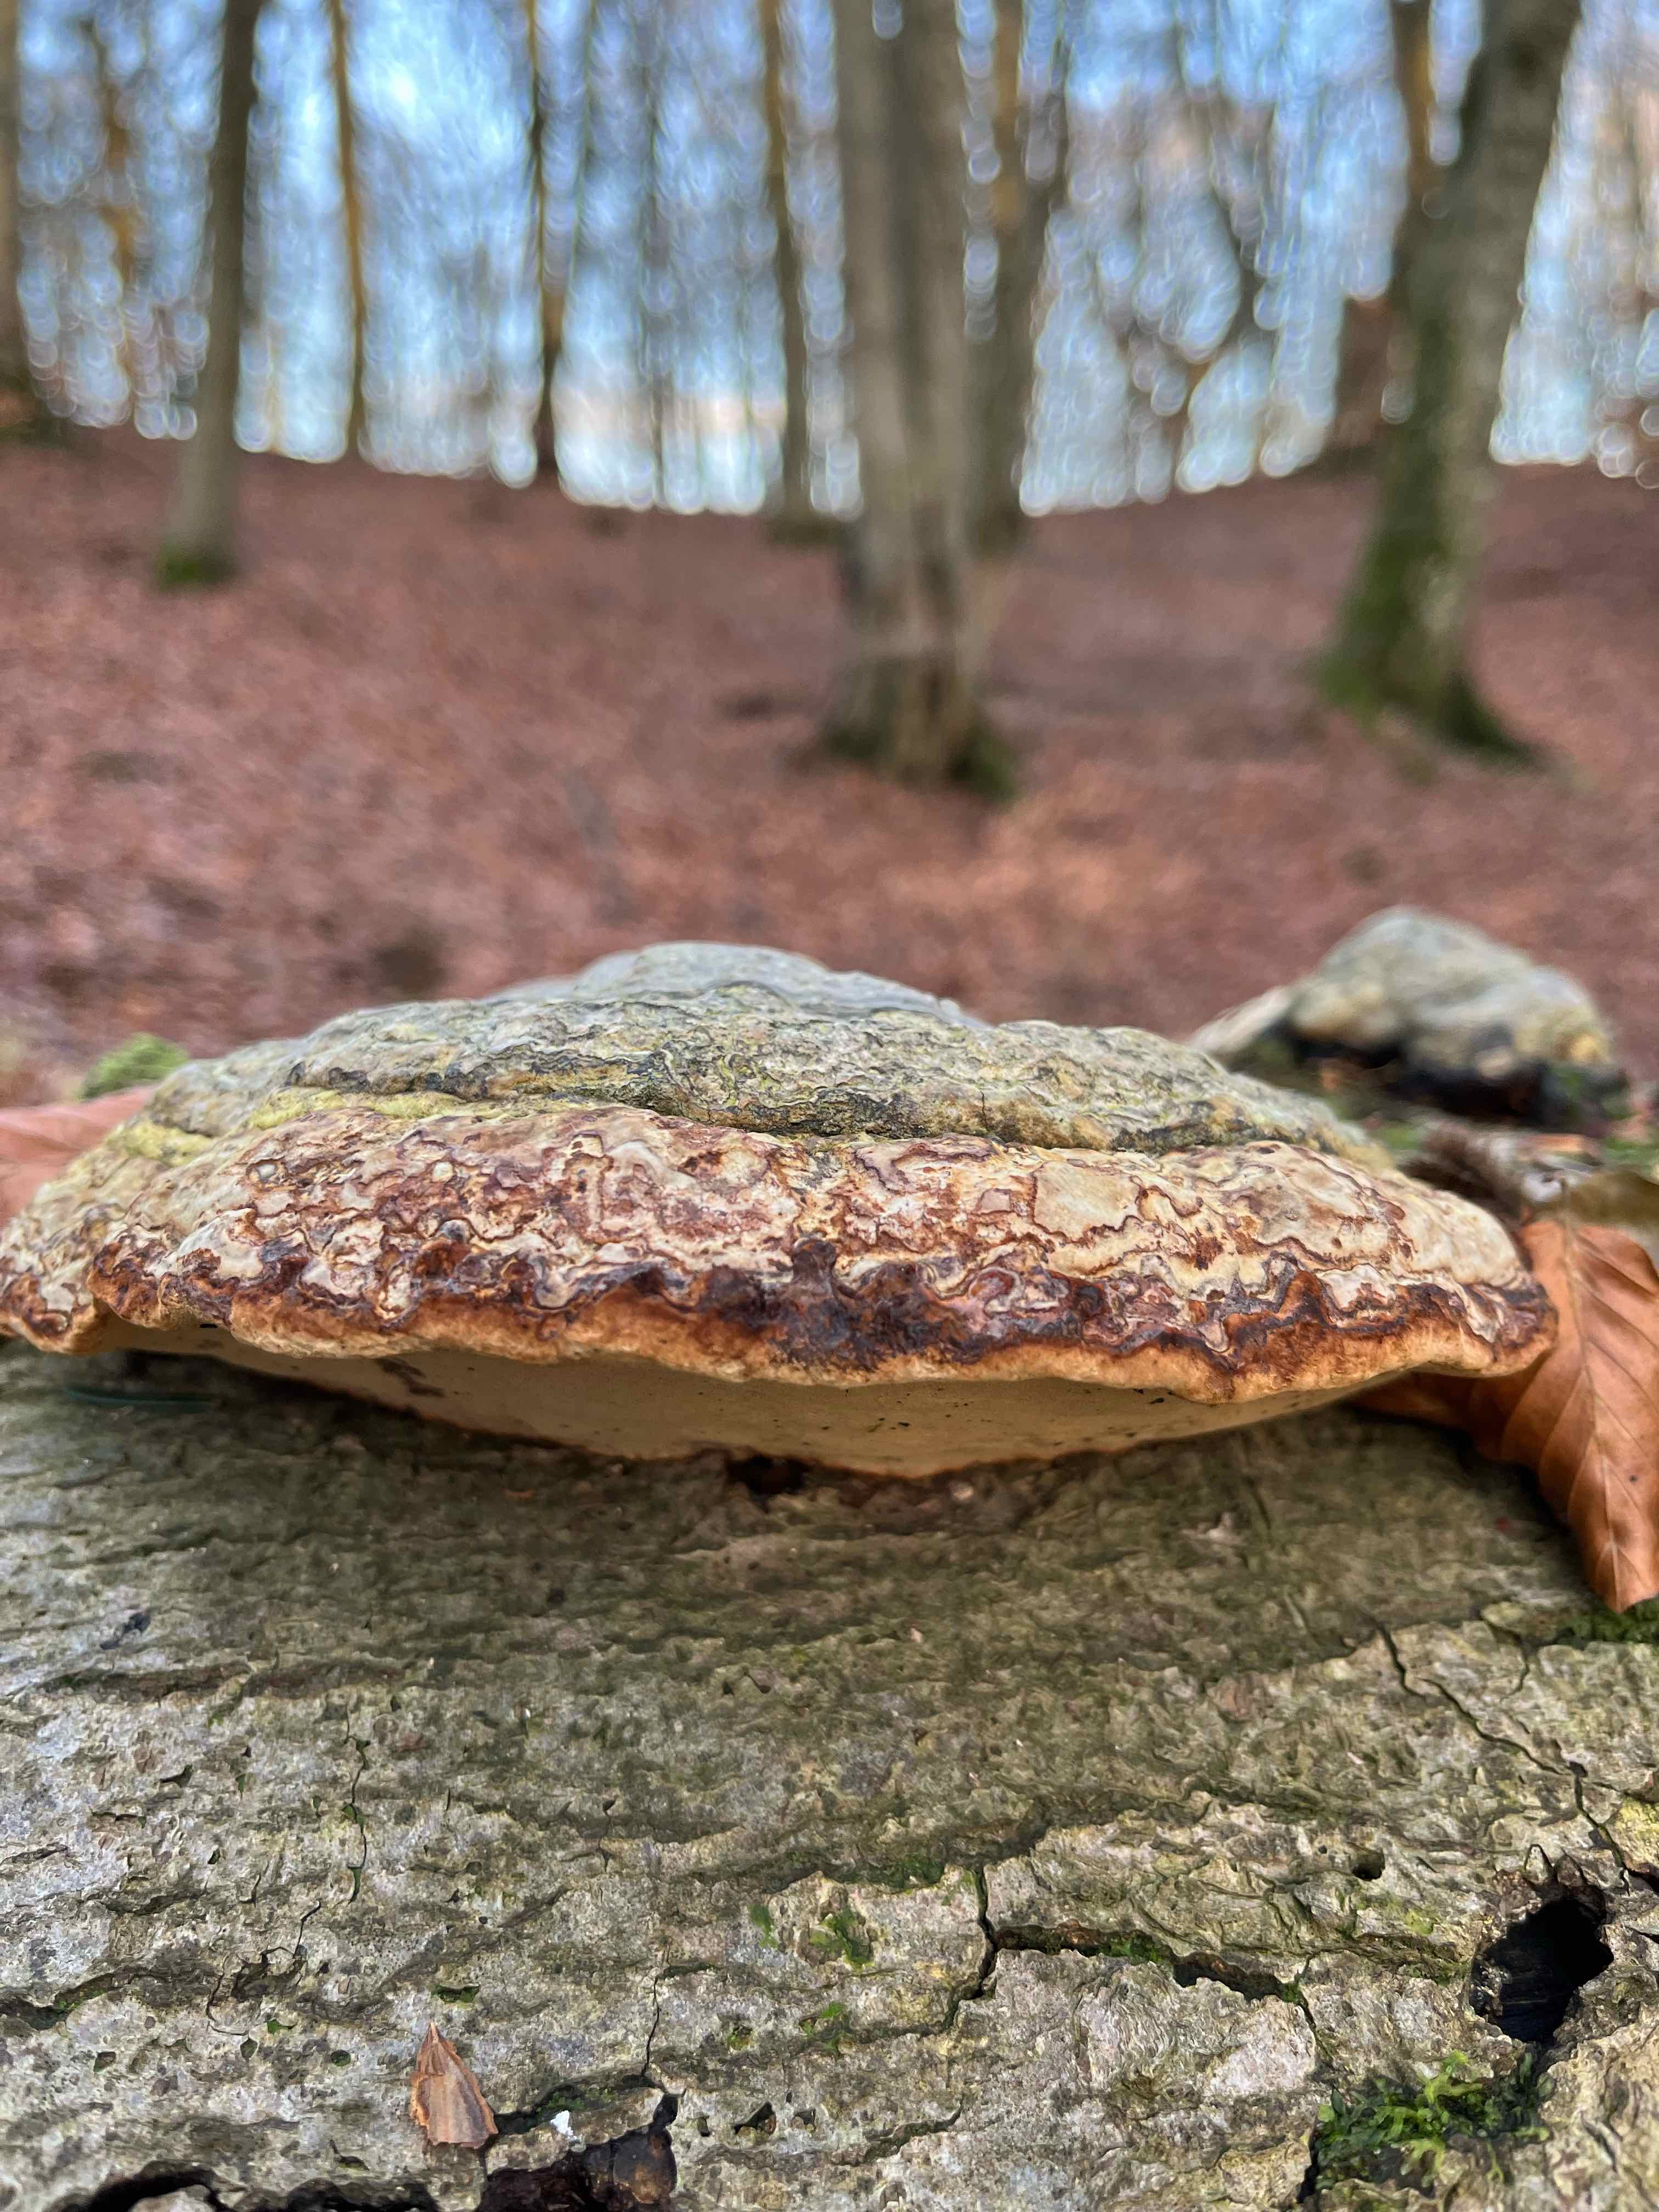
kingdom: Fungi
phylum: Basidiomycota
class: Agaricomycetes
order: Polyporales
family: Polyporaceae
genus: Fomes
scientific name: Fomes fomentarius
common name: tøndersvamp
